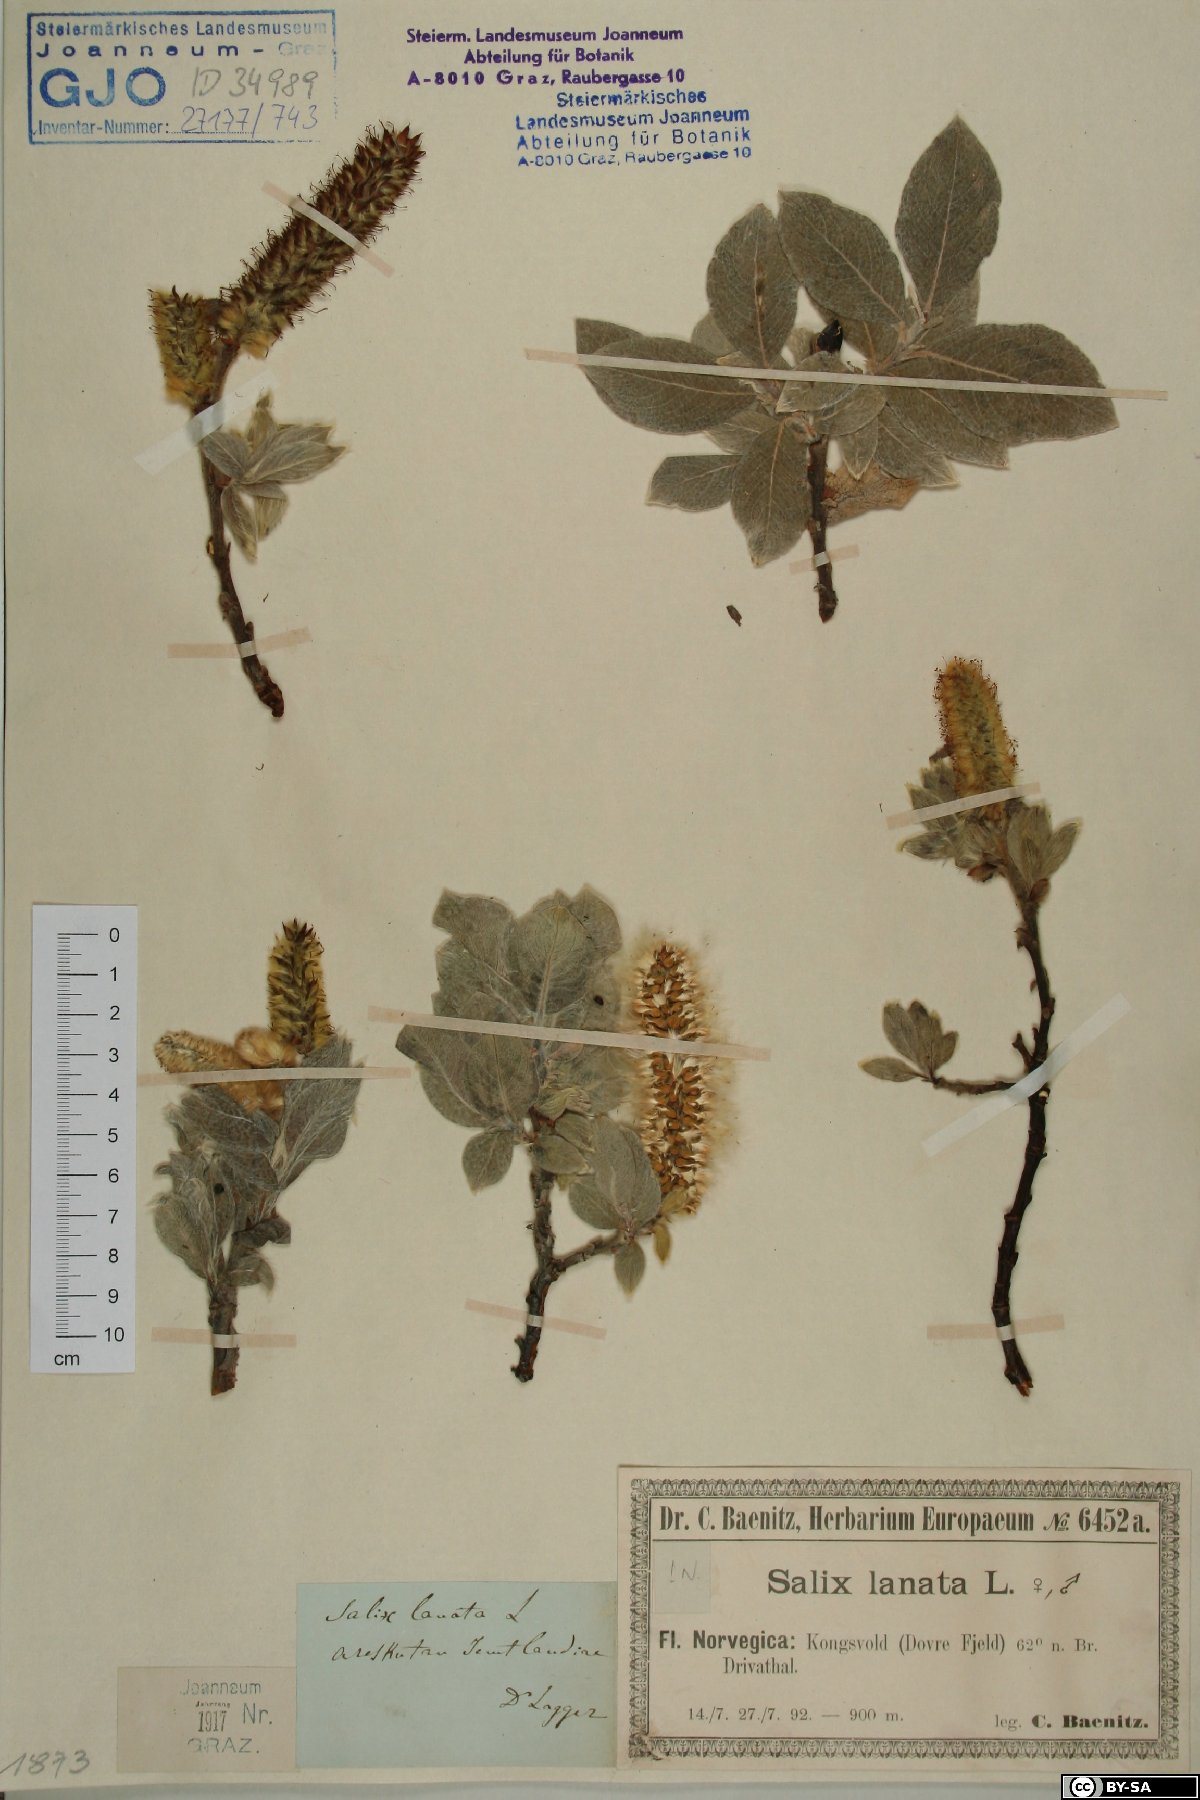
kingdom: Plantae
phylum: Tracheophyta
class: Magnoliopsida
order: Malpighiales
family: Salicaceae
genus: Salix
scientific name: Salix lanata
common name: Woolly willow
